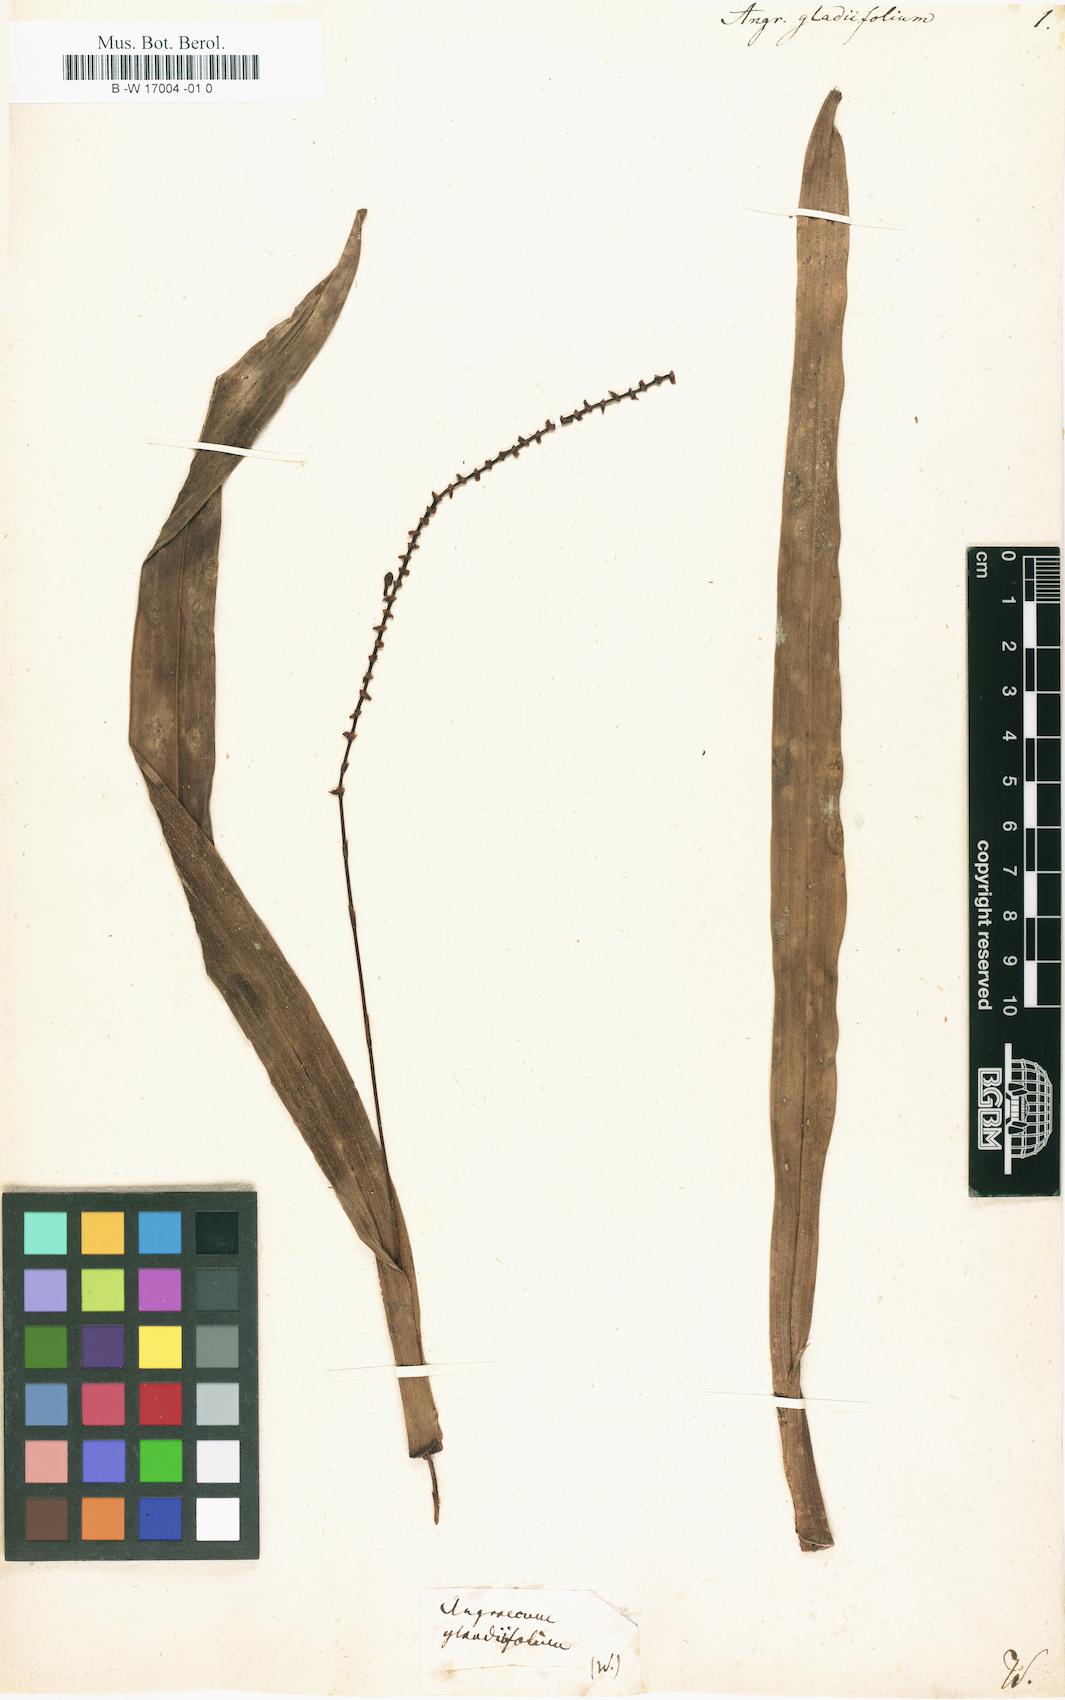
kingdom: Plantae
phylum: Tracheophyta
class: Liliopsida
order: Asparagales
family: Orchidaceae
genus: Angraecum
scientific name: Angraecum mauritianum
